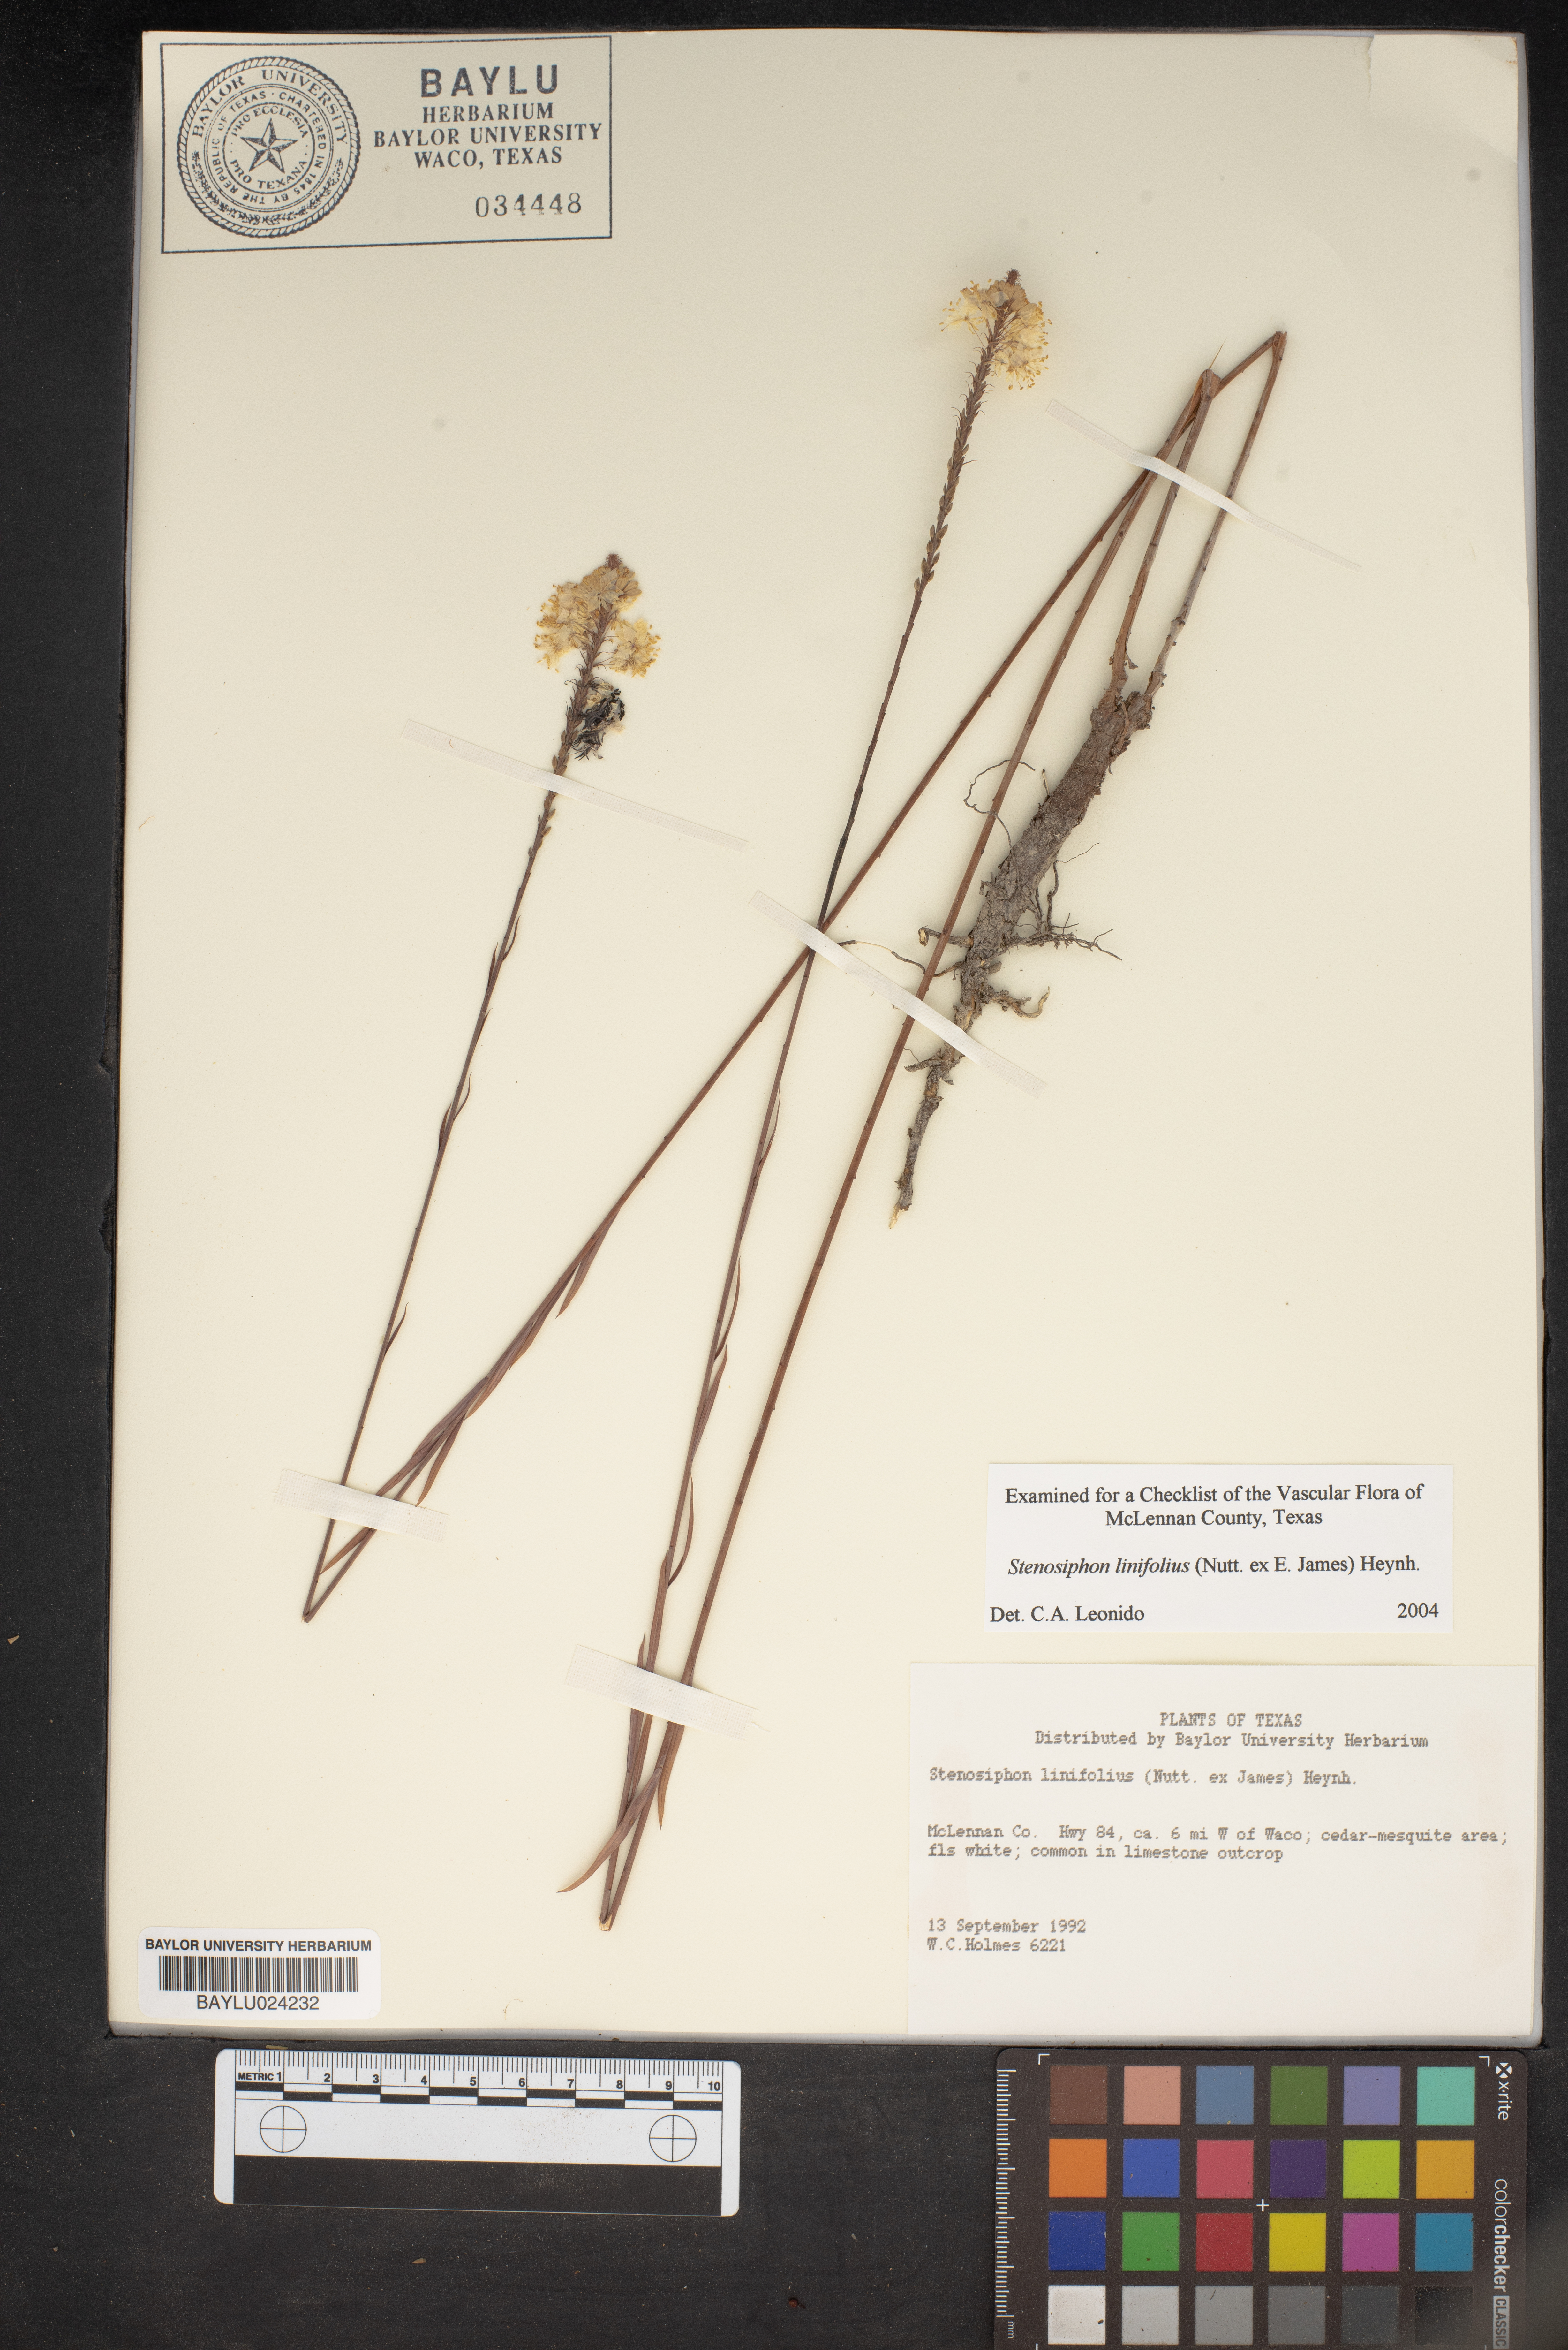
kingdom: Plantae
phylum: Tracheophyta
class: Magnoliopsida
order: Myrtales
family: Onagraceae
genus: Oenothera
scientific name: Oenothera glaucifolia
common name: False gaura
